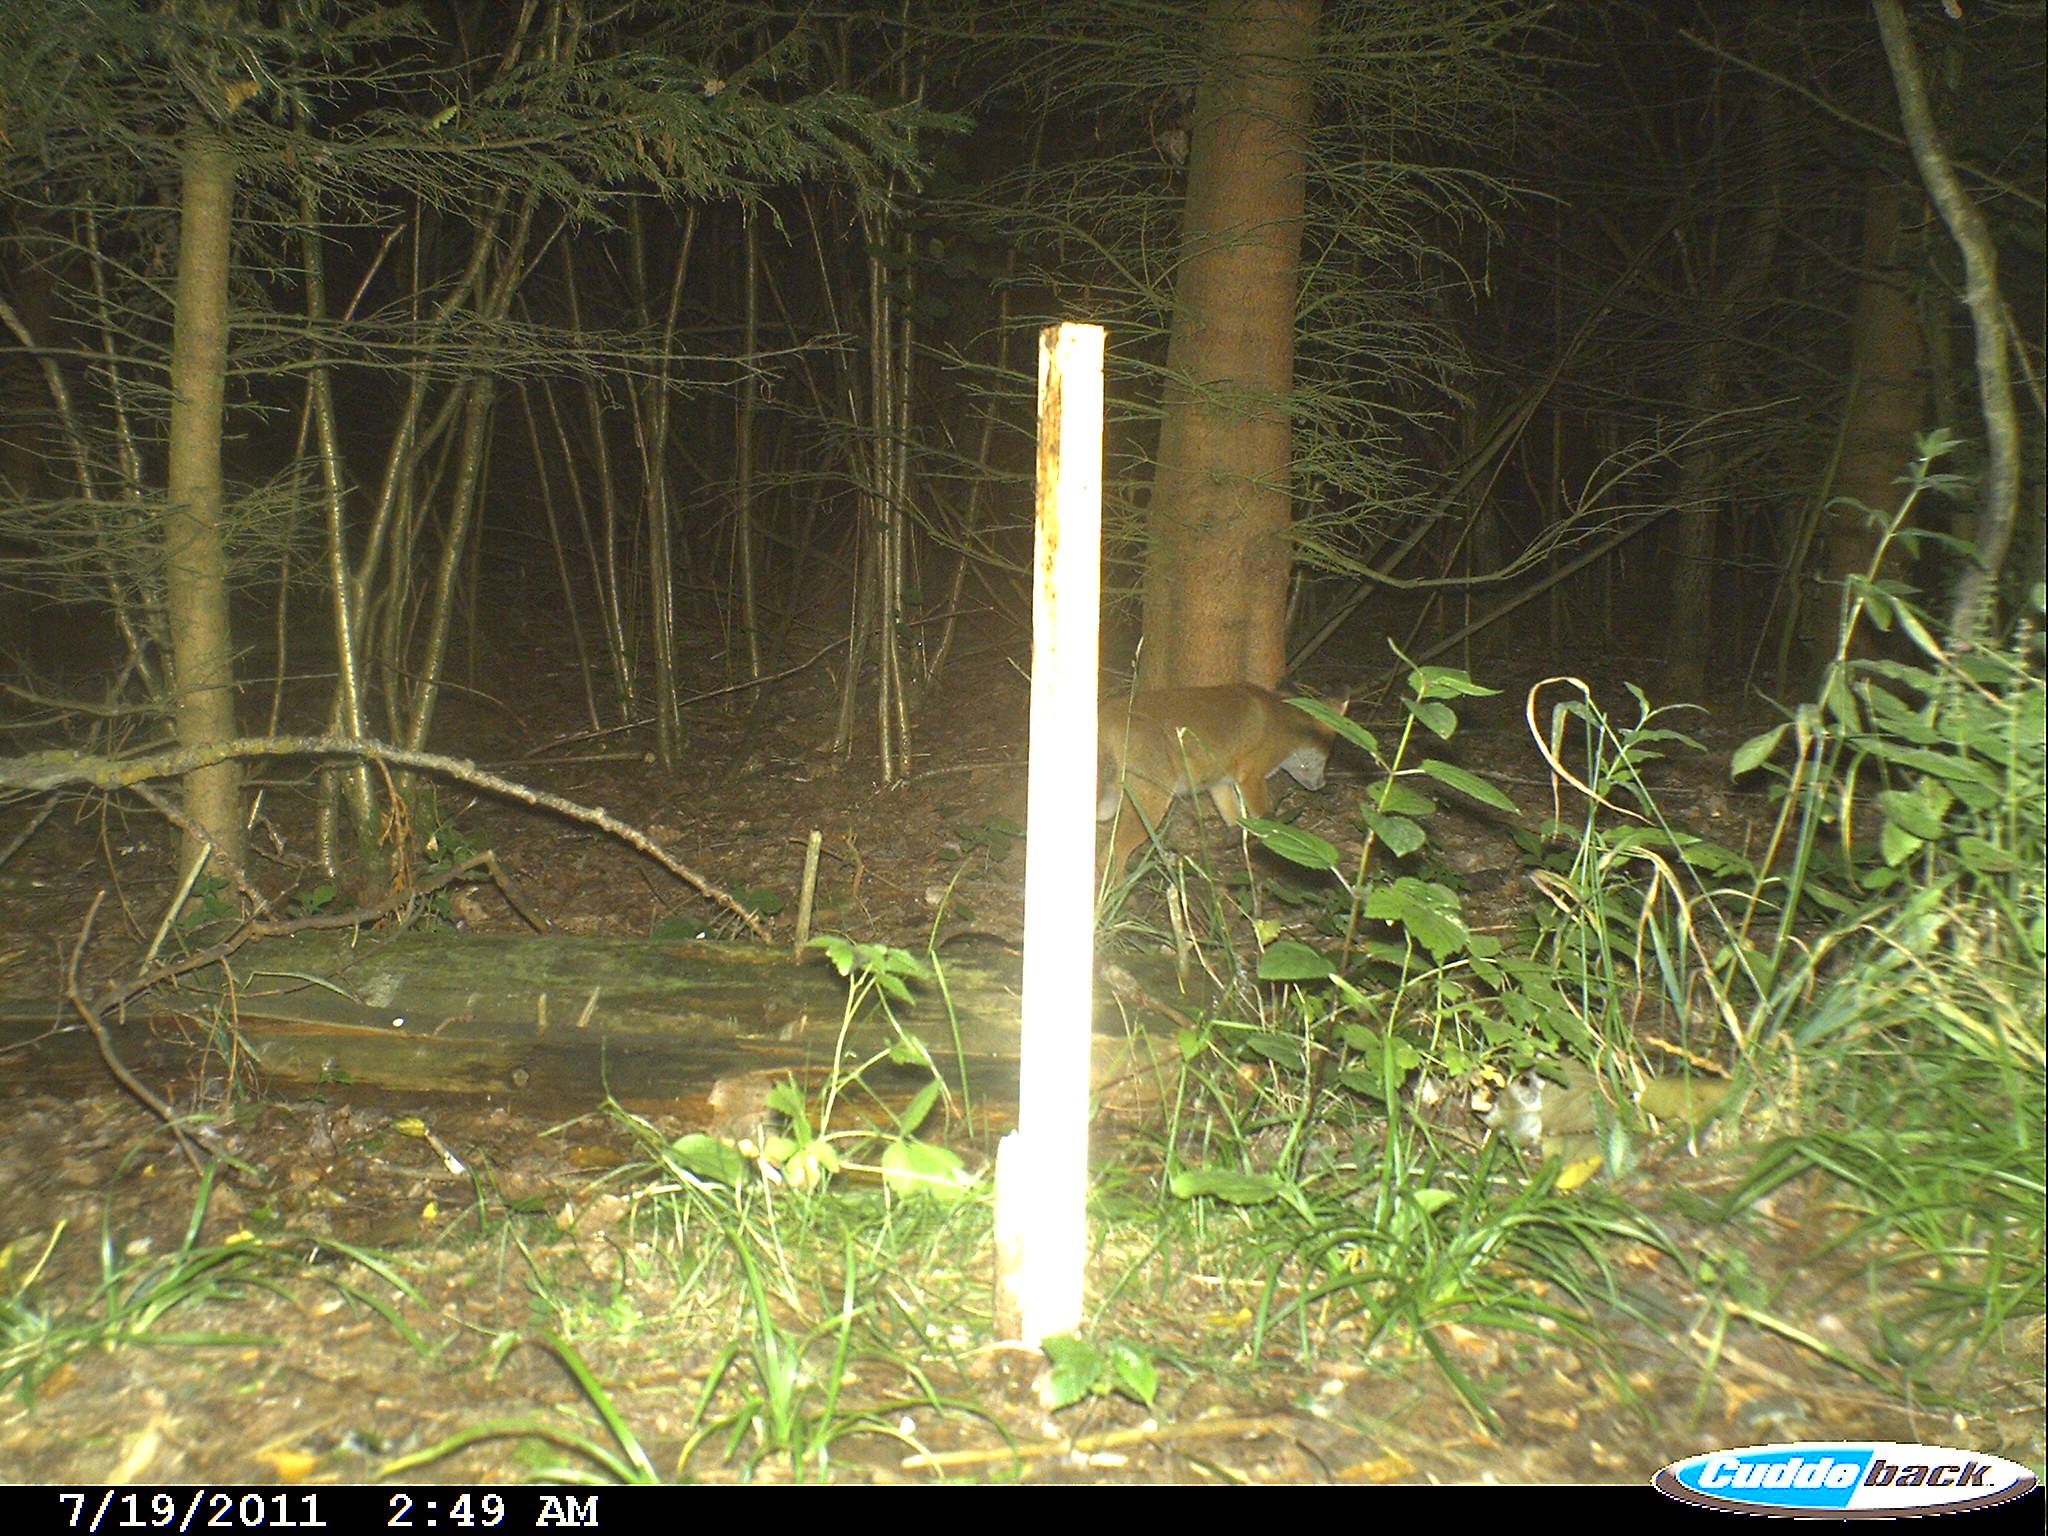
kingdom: Animalia
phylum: Chordata
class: Mammalia
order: Carnivora
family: Canidae
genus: Vulpes
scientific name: Vulpes vulpes
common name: Red fox
